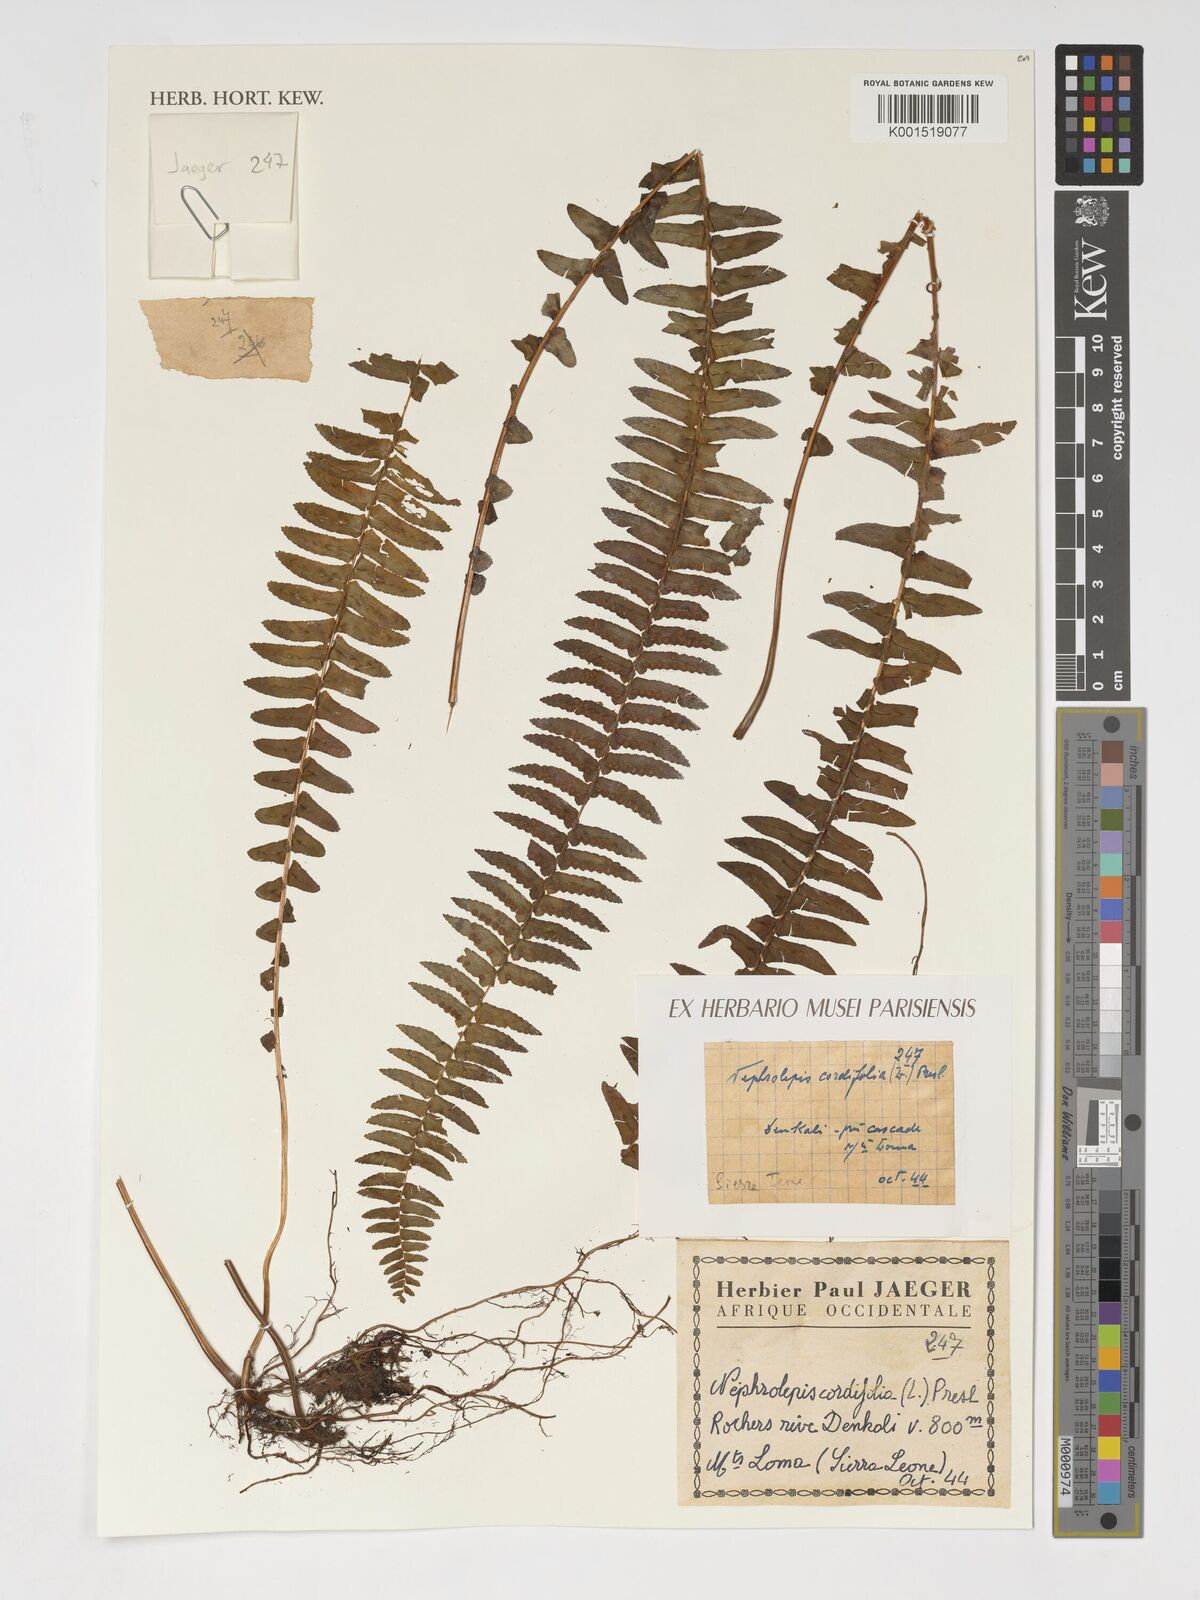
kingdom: Plantae
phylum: Tracheophyta
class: Polypodiopsida
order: Polypodiales
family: Nephrolepidaceae
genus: Nephrolepis
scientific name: Nephrolepis cordifolia
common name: Narrow swordfern
